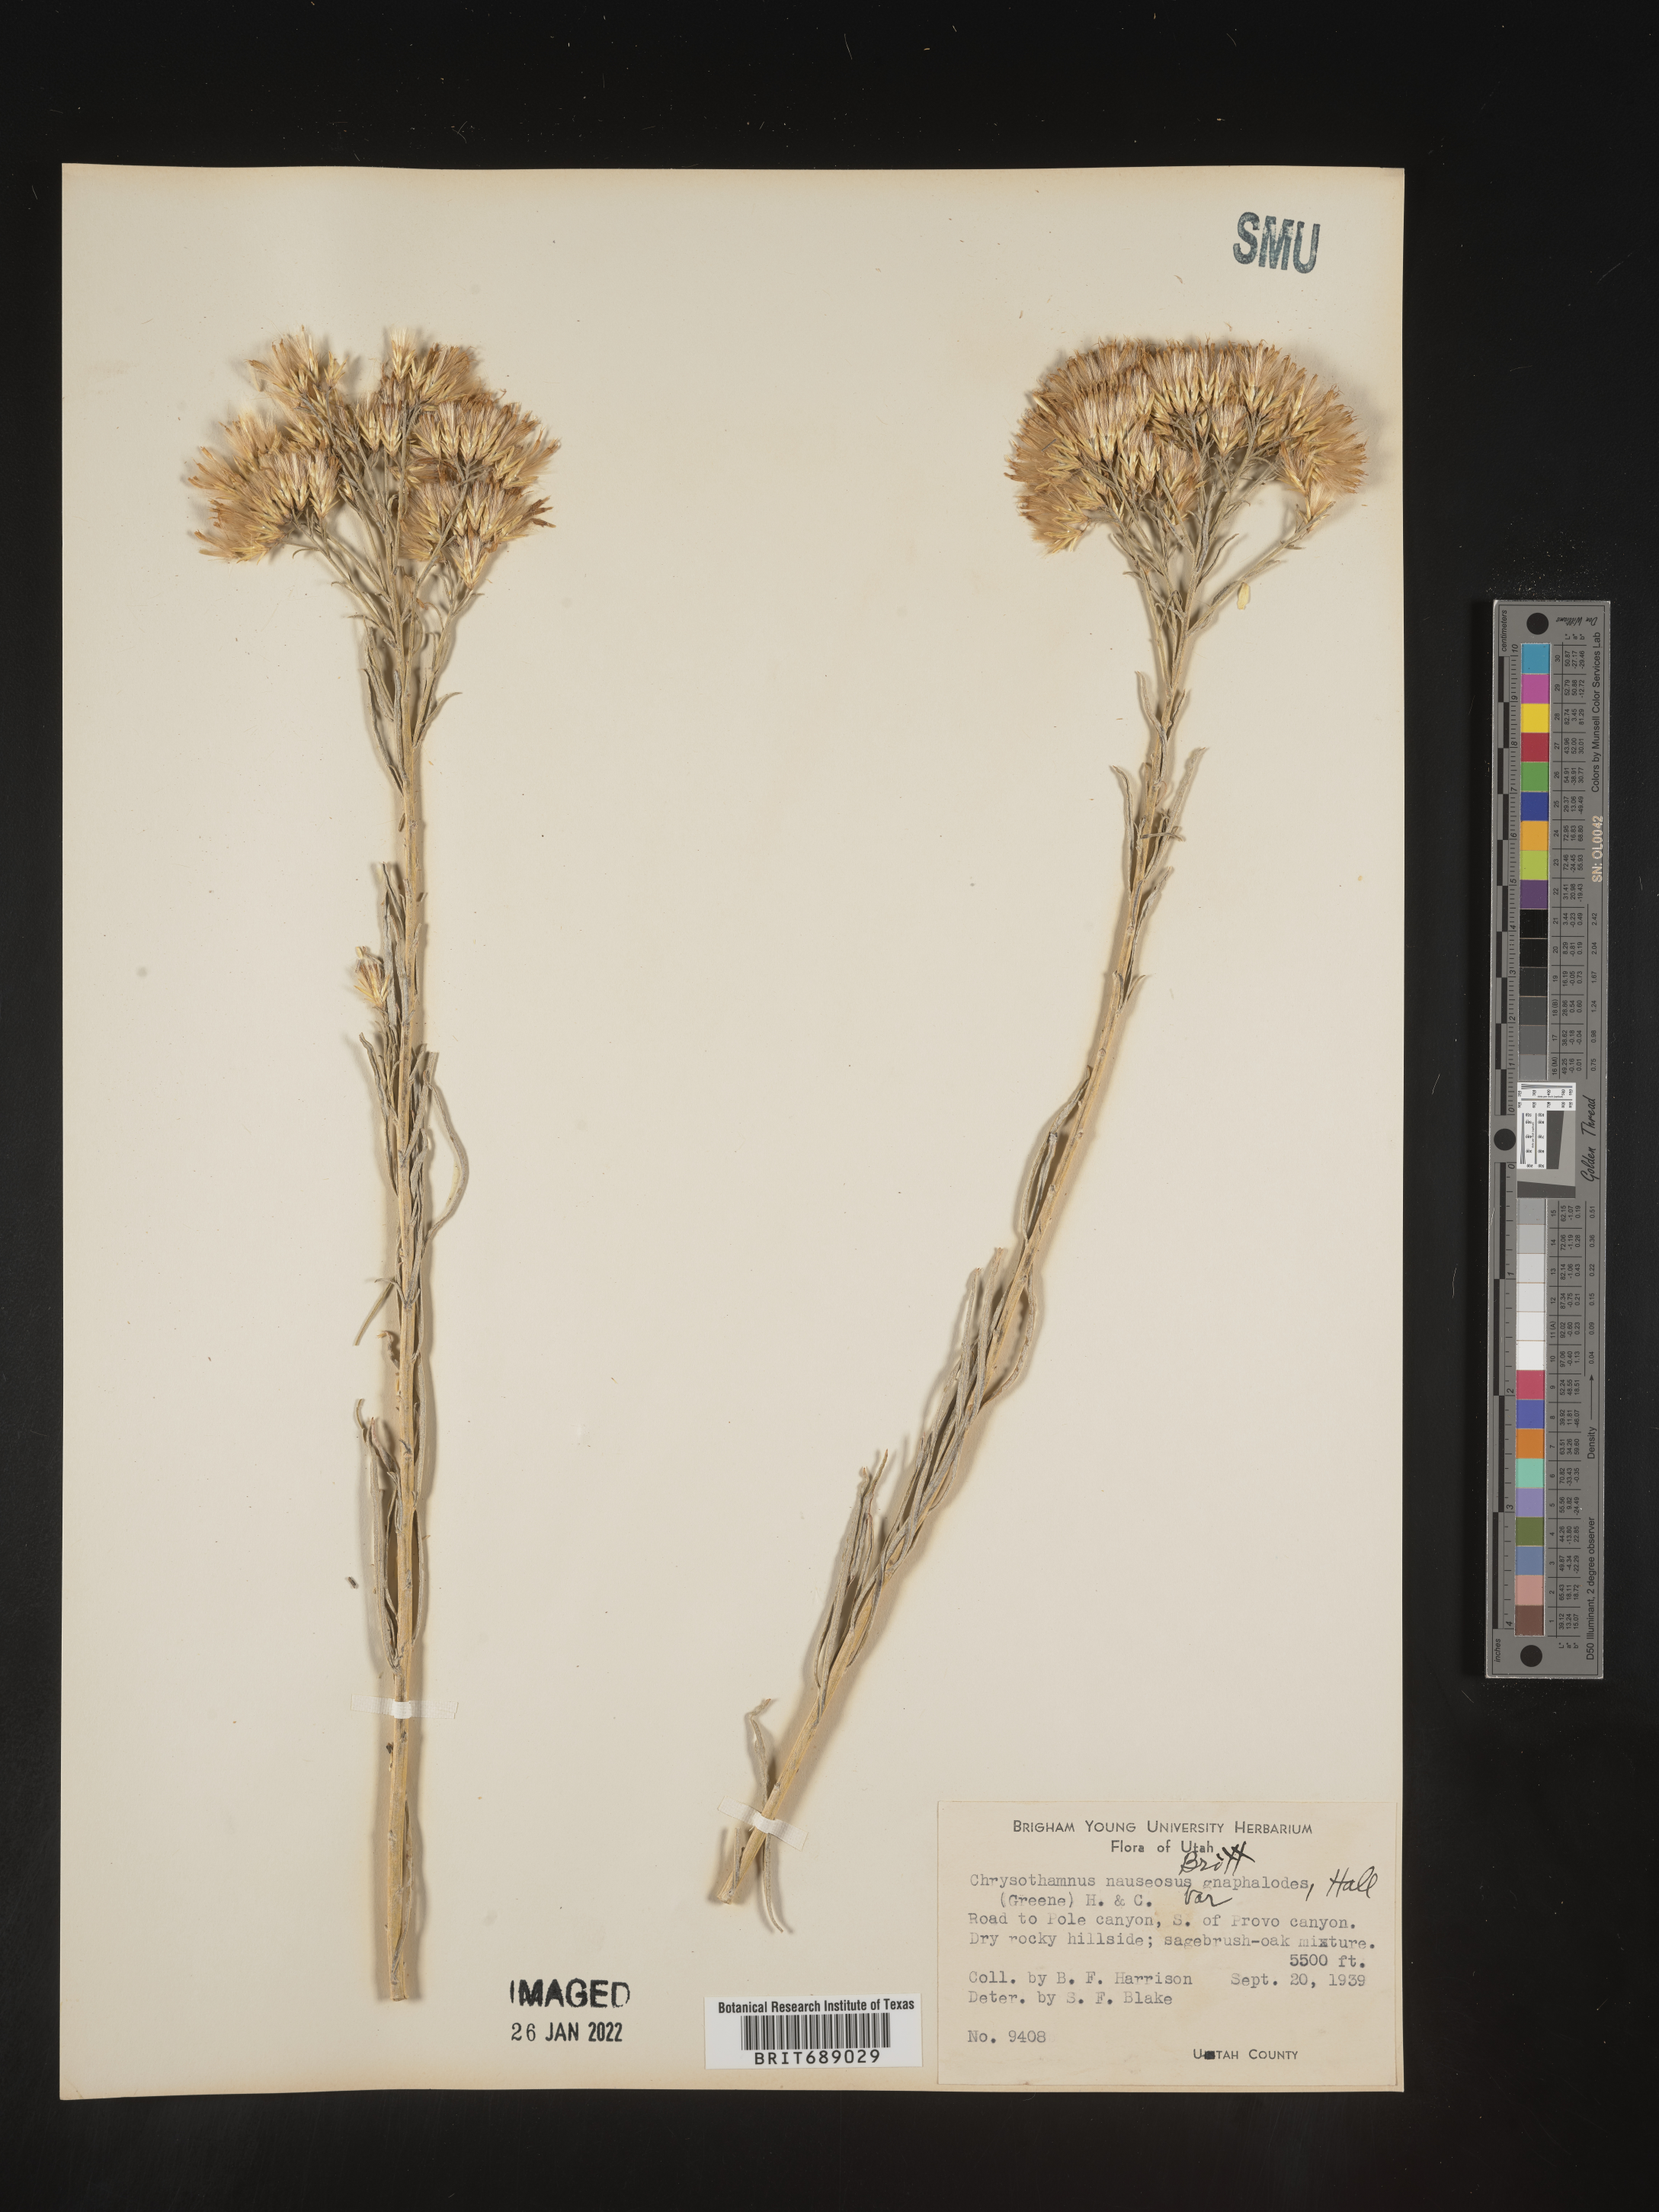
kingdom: Plantae
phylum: Tracheophyta
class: Magnoliopsida
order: Asterales
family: Asteraceae
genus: Ericameria
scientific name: Ericameria nauseosa
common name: Rubber rabbitbrush
